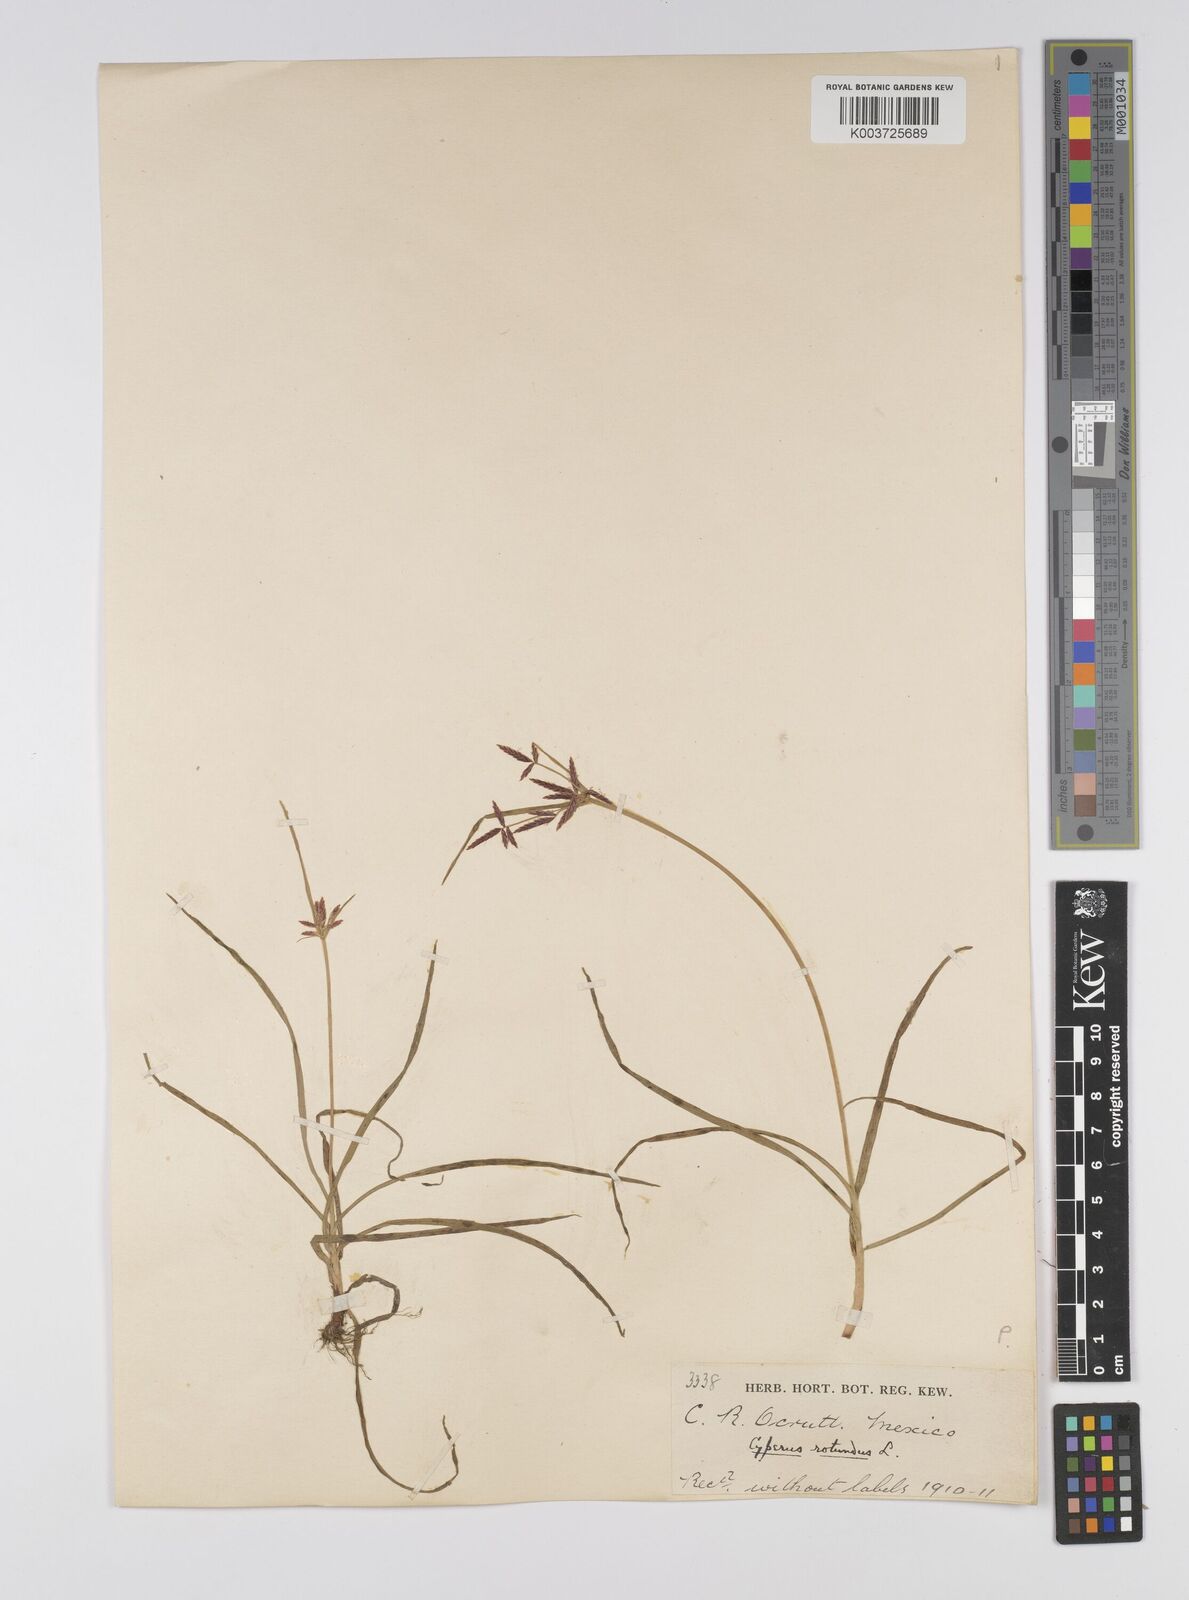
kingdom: Plantae
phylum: Tracheophyta
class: Liliopsida
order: Poales
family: Cyperaceae
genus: Cyperus
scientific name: Cyperus rotundus
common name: Nutgrass
